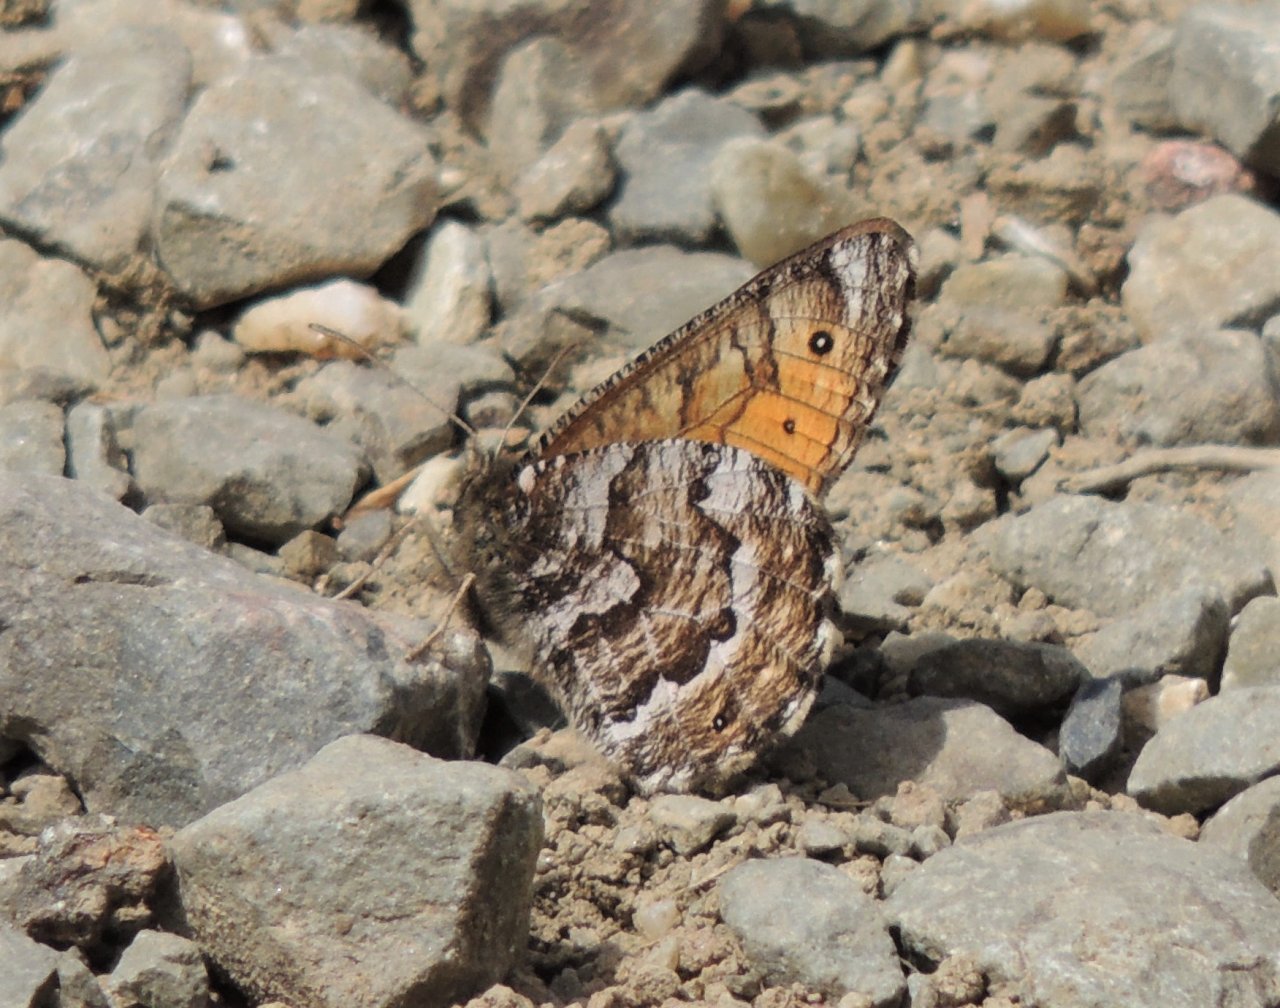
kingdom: Animalia
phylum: Arthropoda
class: Insecta
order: Lepidoptera
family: Nymphalidae
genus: Oeneis
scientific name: Oeneis chryxus
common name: Chryxus Arctic
